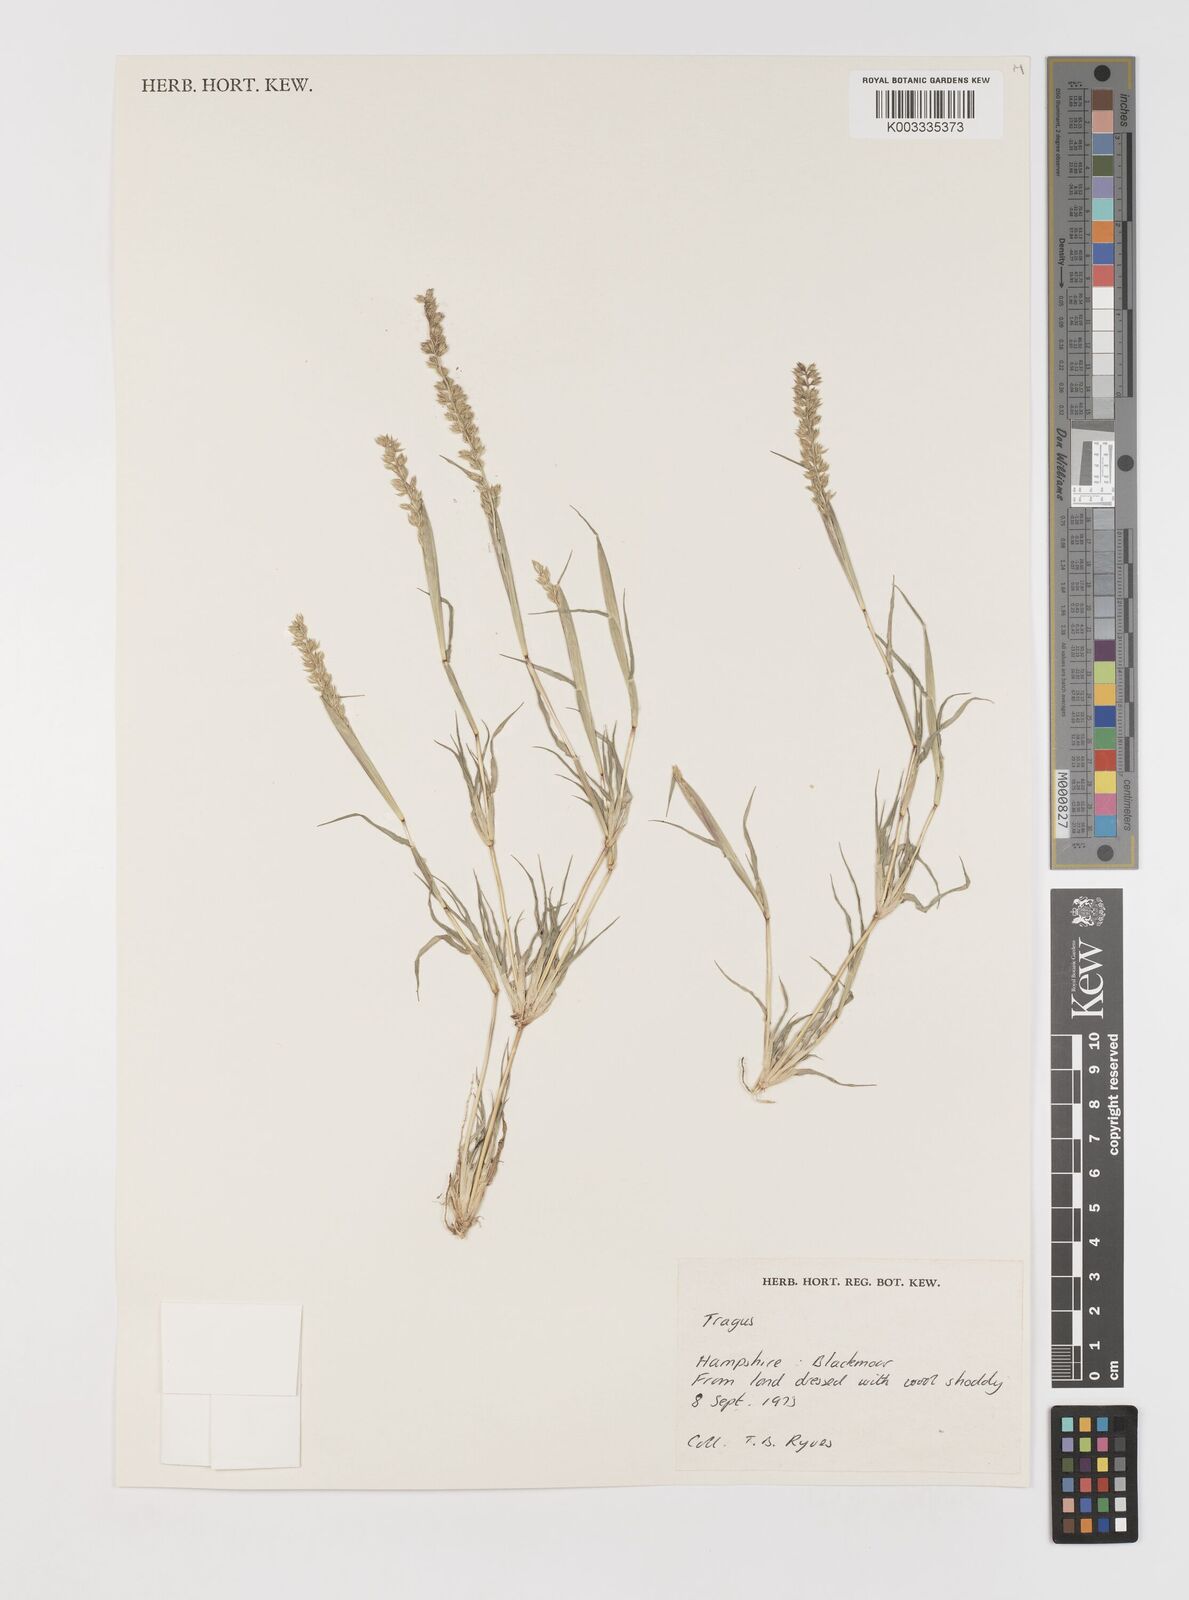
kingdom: Plantae
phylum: Tracheophyta
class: Liliopsida
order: Poales
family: Poaceae
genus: Tragus
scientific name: Tragus australianus
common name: Australian bur-grass
